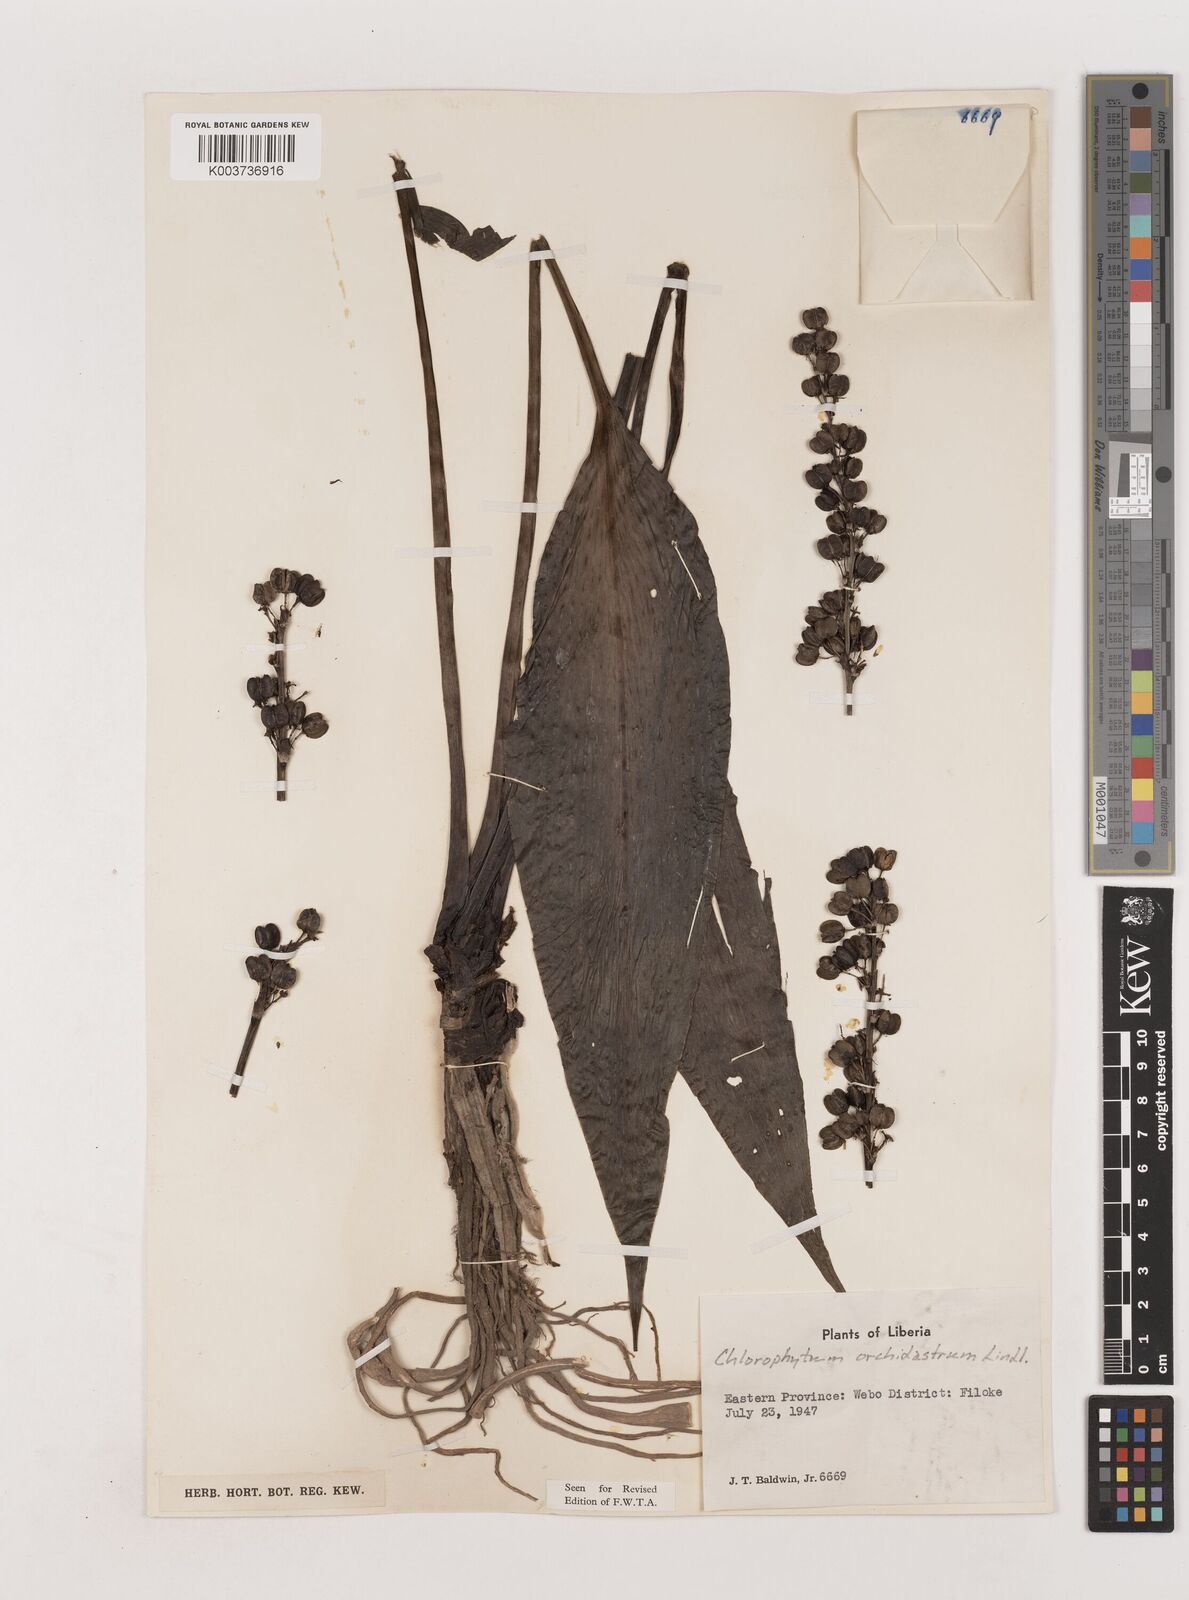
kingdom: Plantae
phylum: Tracheophyta
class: Liliopsida
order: Asparagales
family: Asparagaceae
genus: Chlorophytum
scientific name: Chlorophytum orchidastrum
